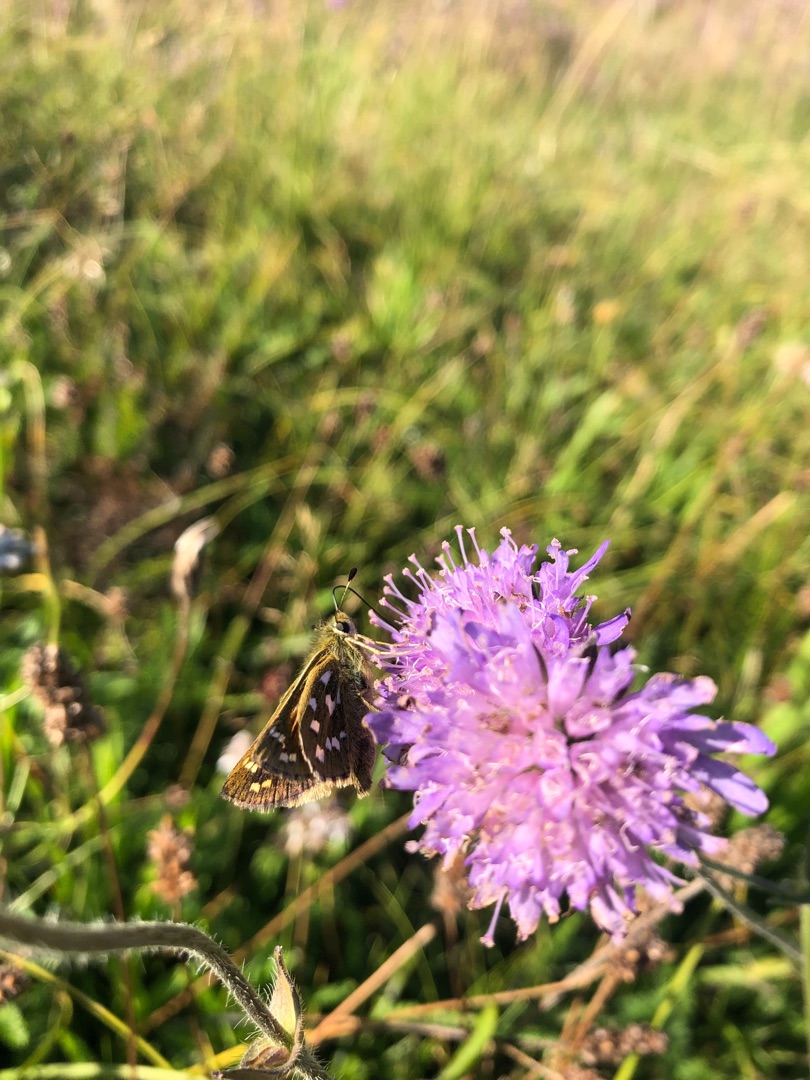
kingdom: Animalia
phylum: Arthropoda
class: Insecta
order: Lepidoptera
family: Hesperiidae
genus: Hesperia
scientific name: Hesperia comma
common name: Kommabredpande
